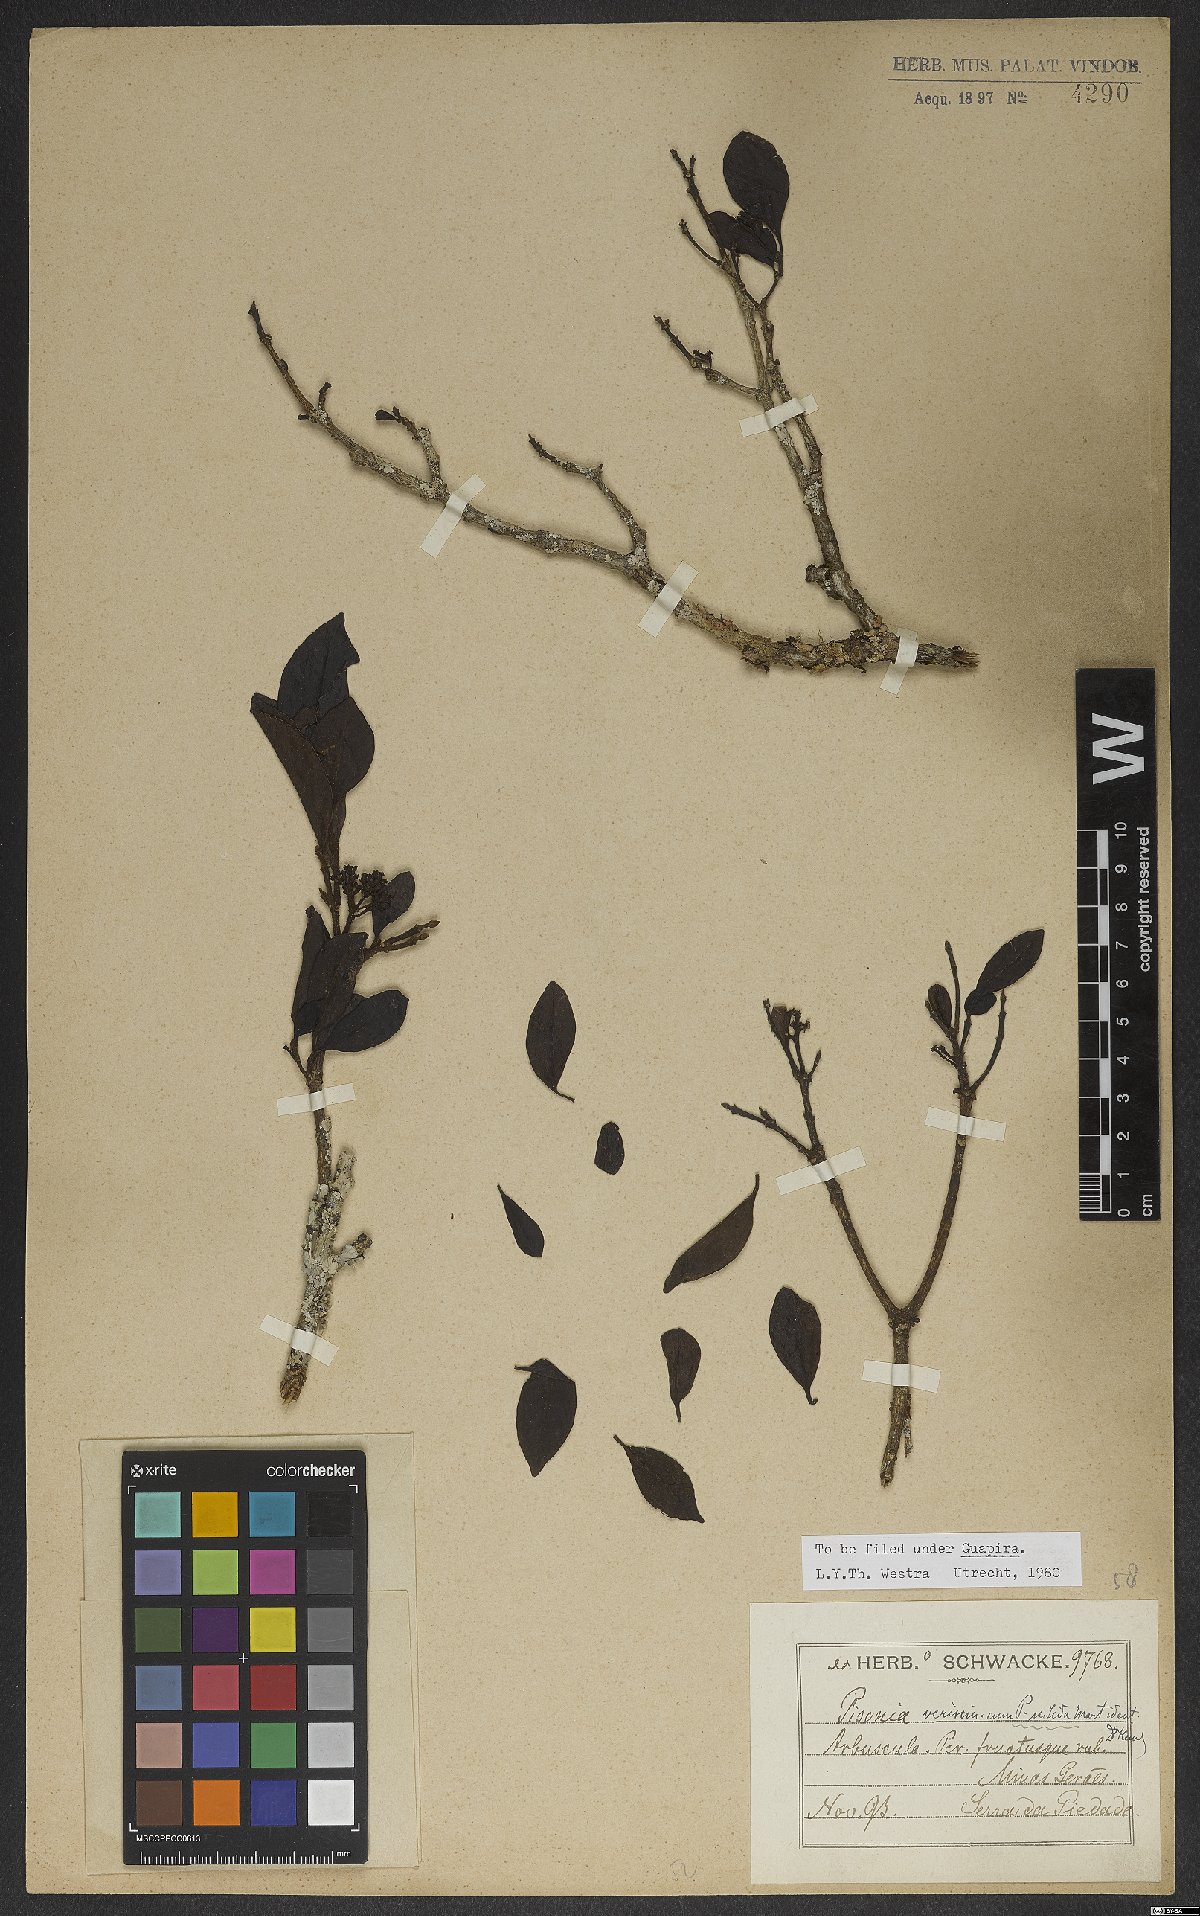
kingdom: Plantae
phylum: Tracheophyta
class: Magnoliopsida
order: Caryophyllales
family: Nyctaginaceae
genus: Guapira
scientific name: Guapira nitida
